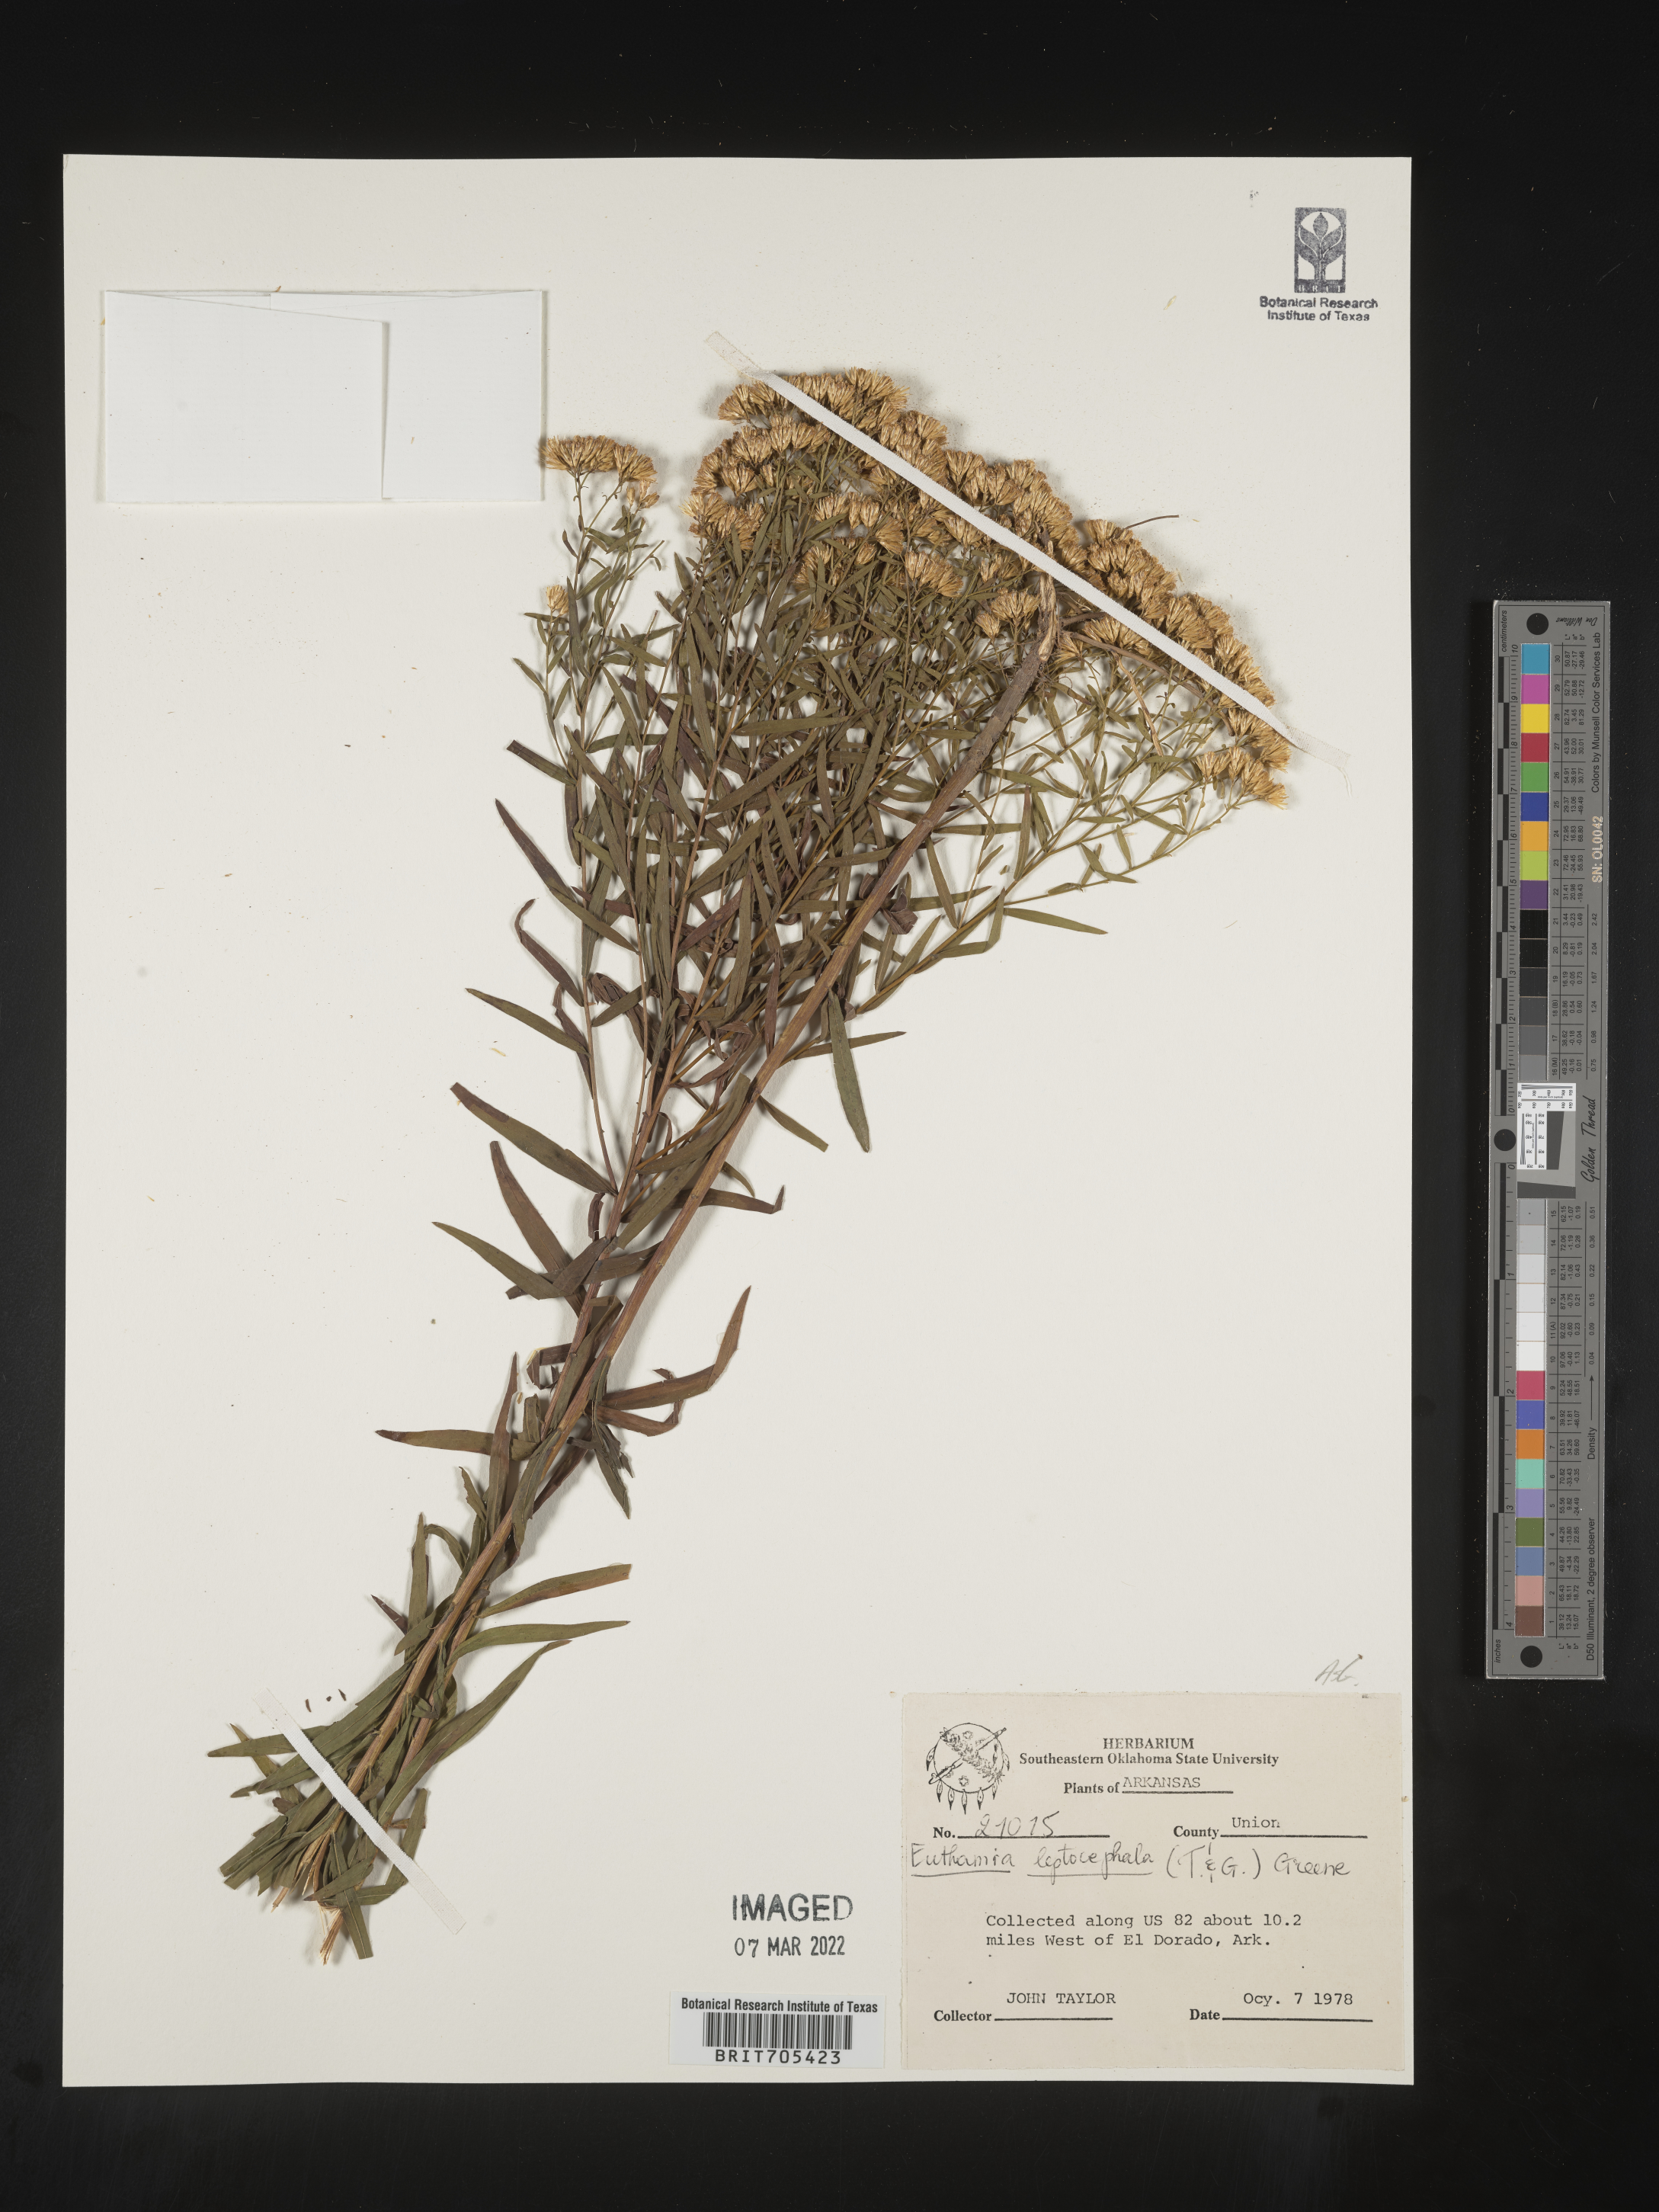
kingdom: Plantae
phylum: Tracheophyta
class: Magnoliopsida
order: Asterales
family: Asteraceae
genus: Euthamia
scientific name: Euthamia leptocephala
